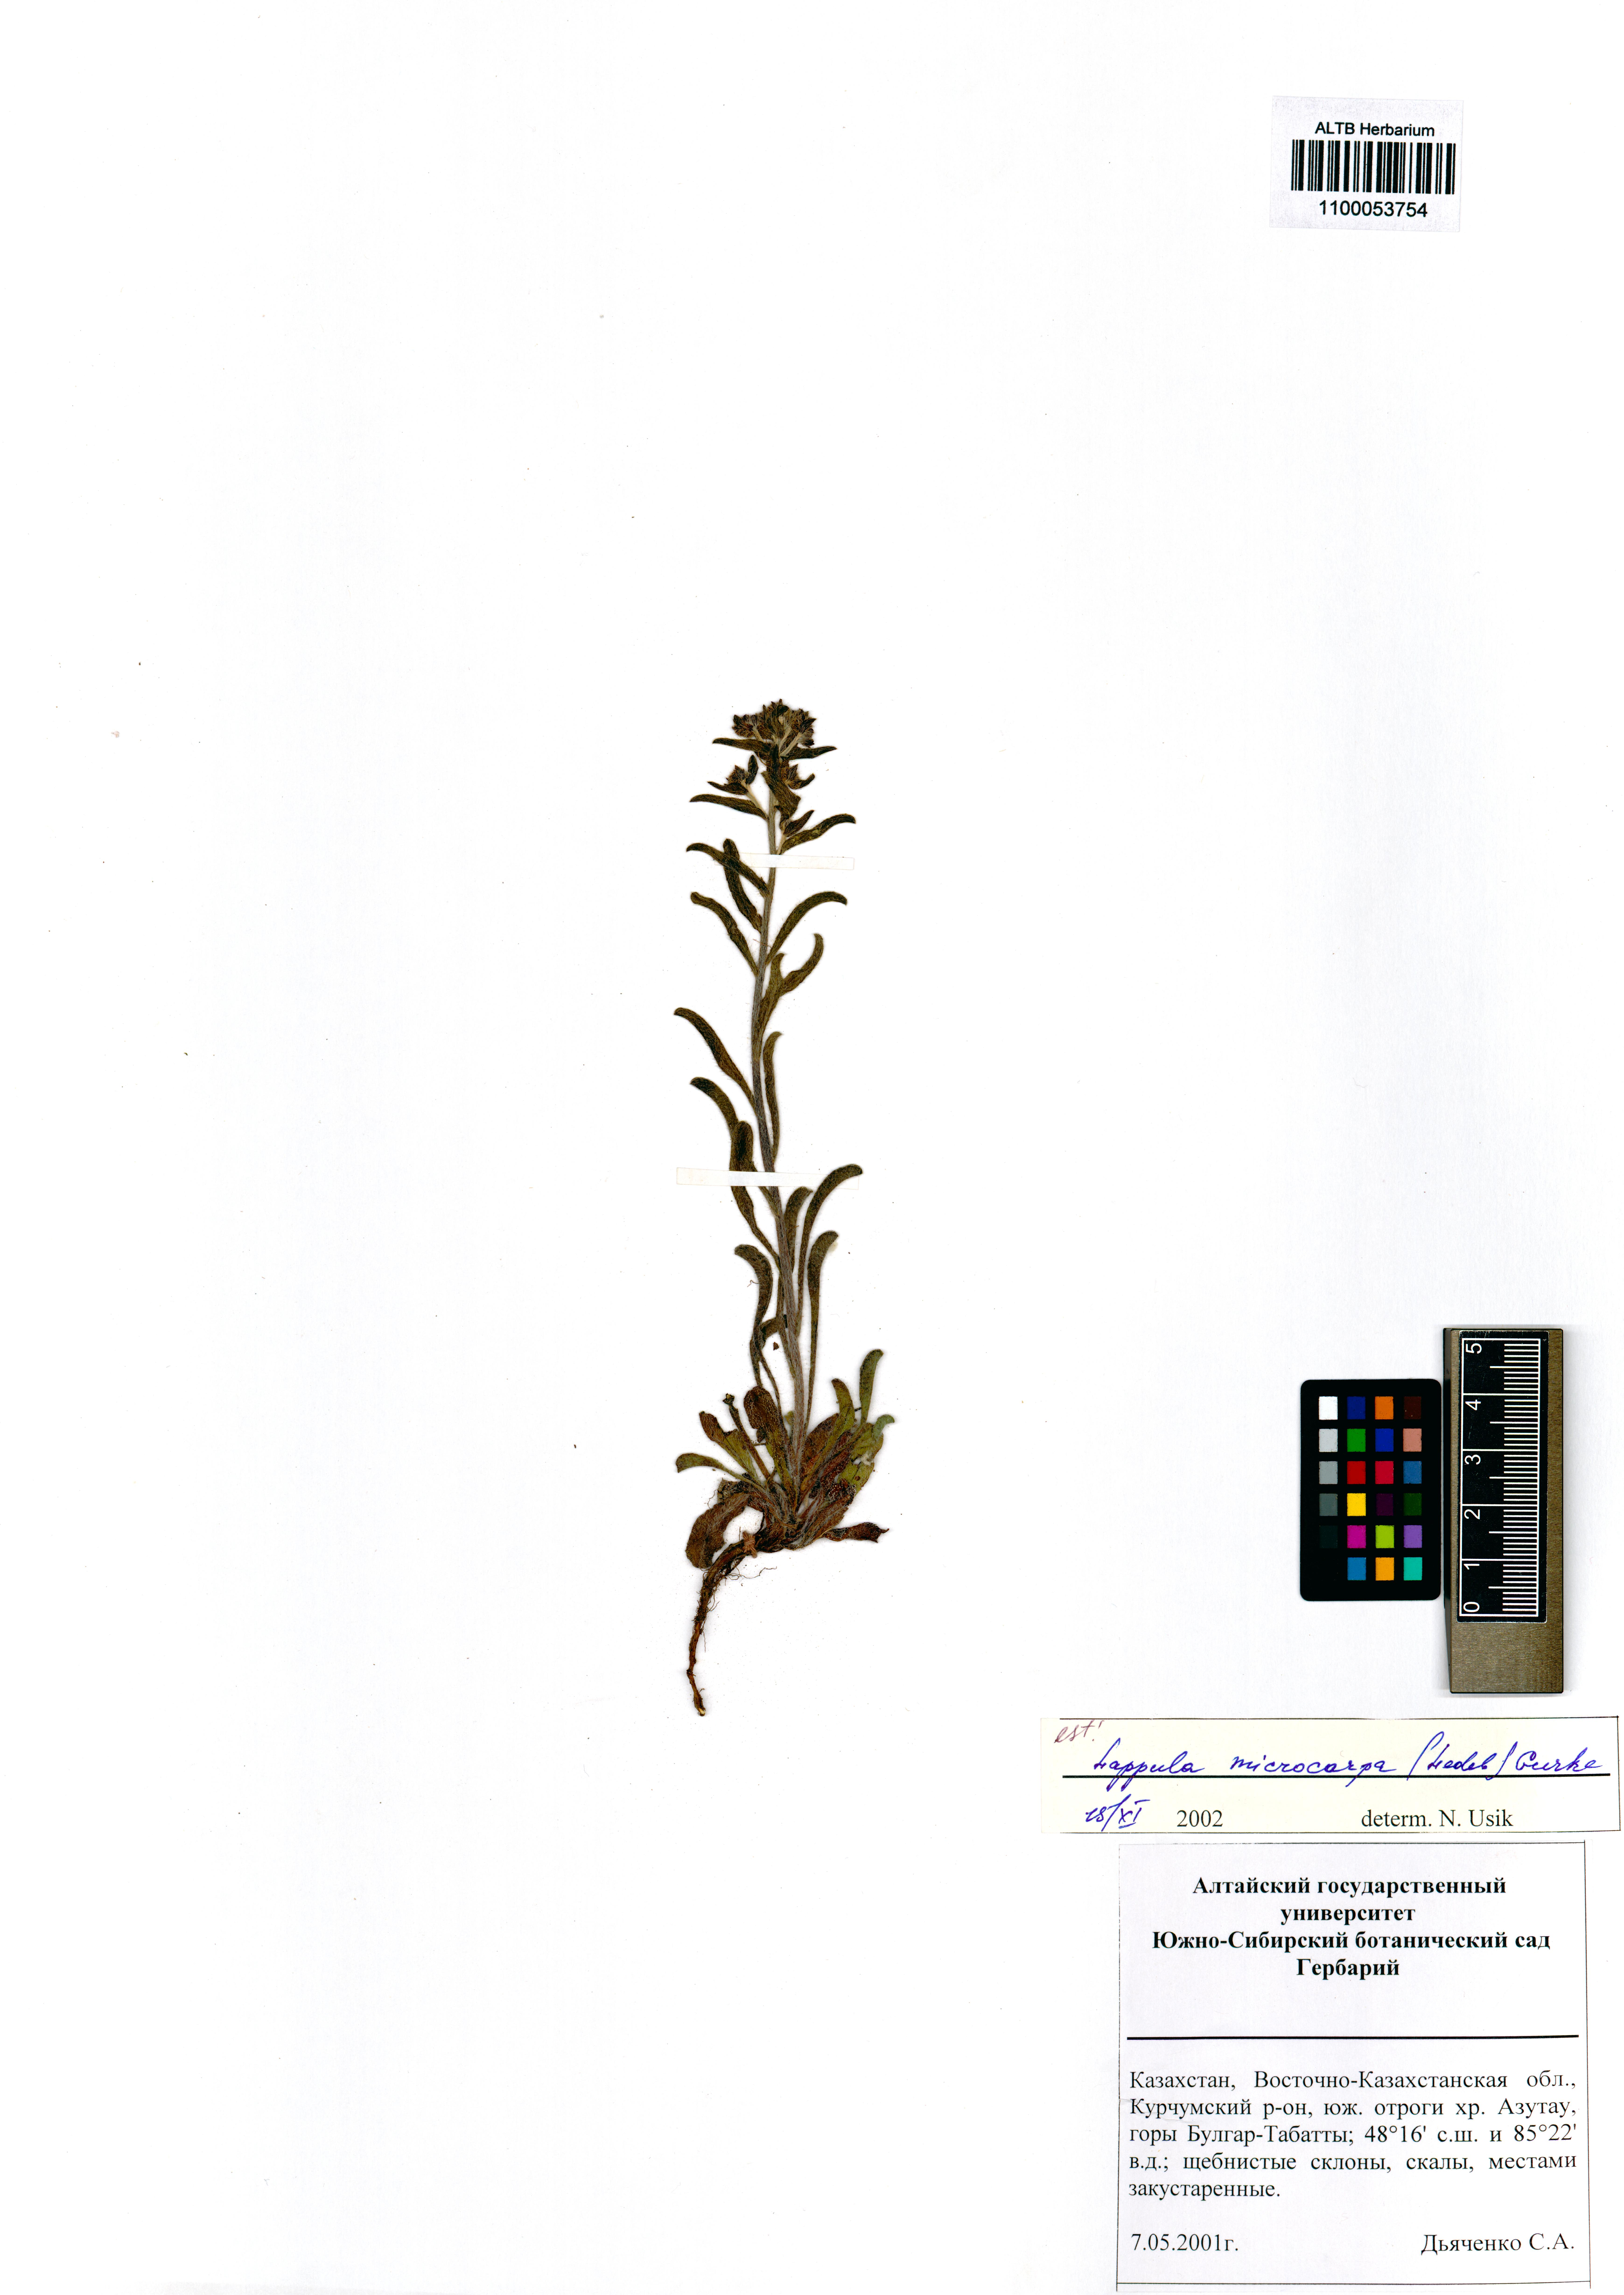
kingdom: Plantae
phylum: Tracheophyta
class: Magnoliopsida
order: Boraginales
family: Boraginaceae
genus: Lappula
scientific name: Lappula microcarpa
